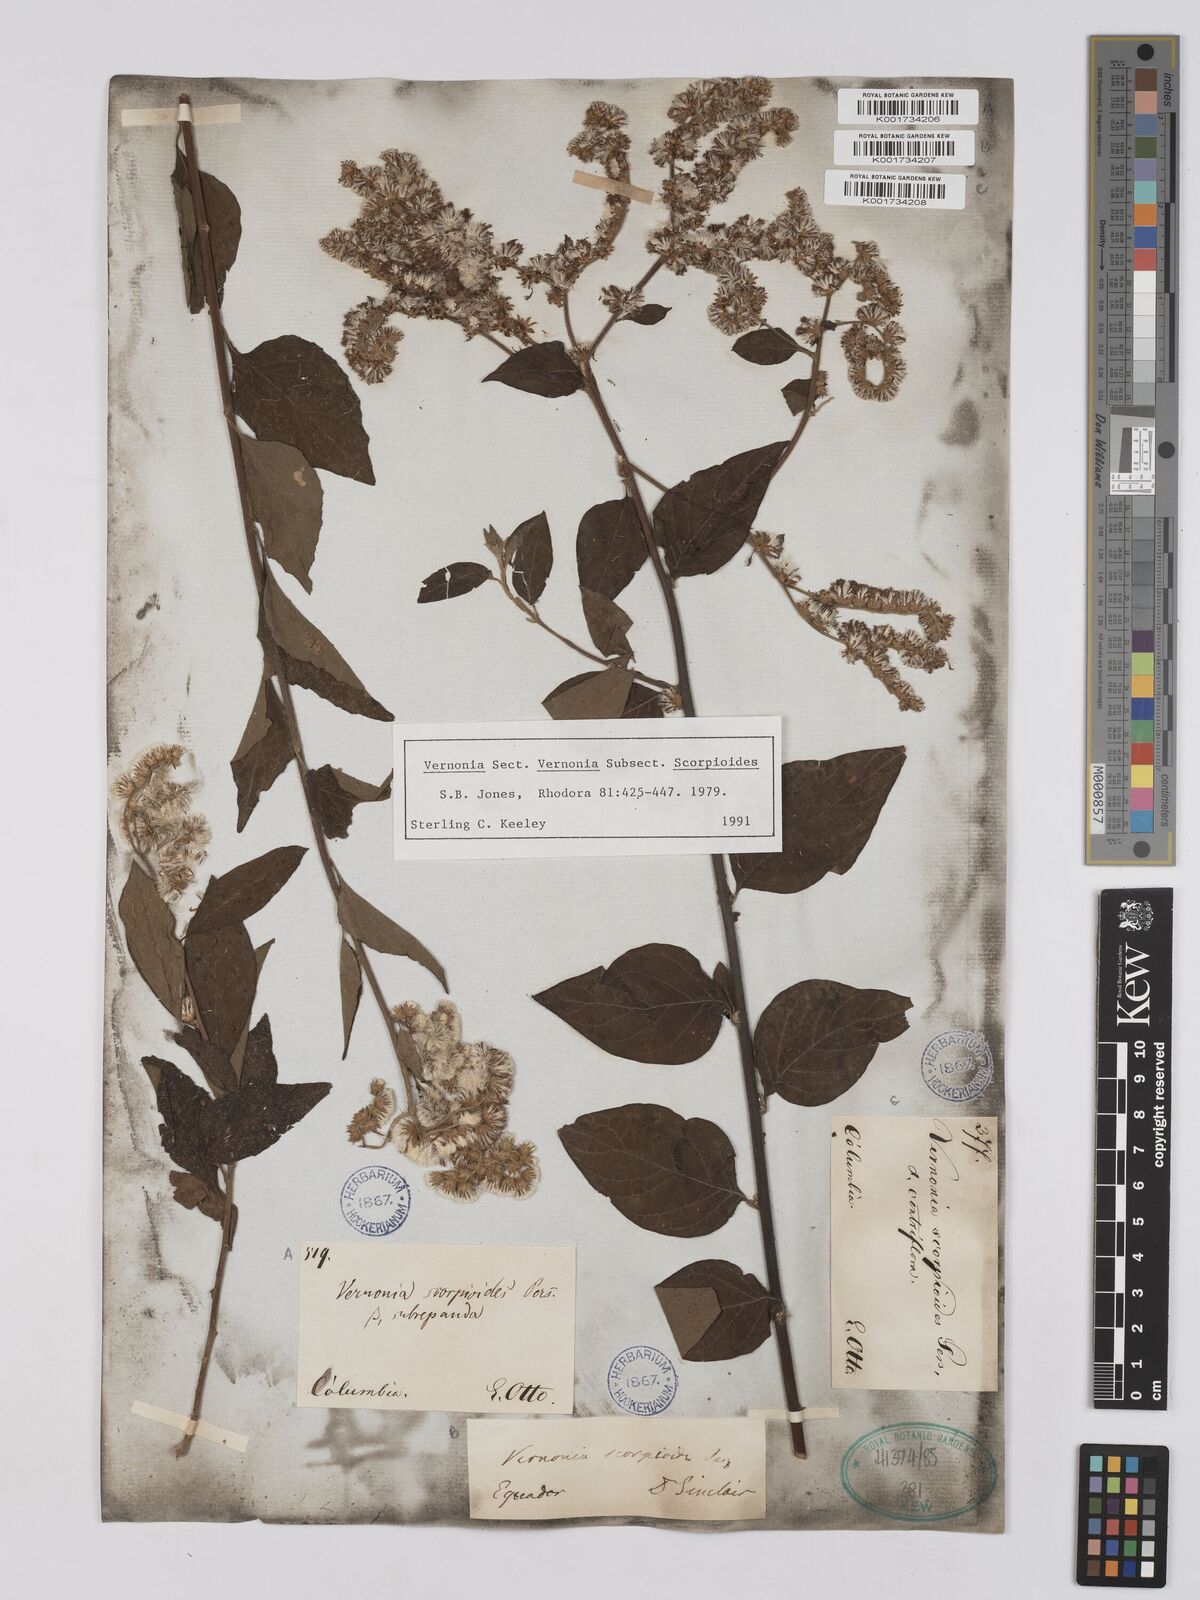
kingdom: Plantae
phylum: Tracheophyta
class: Magnoliopsida
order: Asterales
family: Asteraceae
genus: Cyrtocymura
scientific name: Cyrtocymura scorpioides
